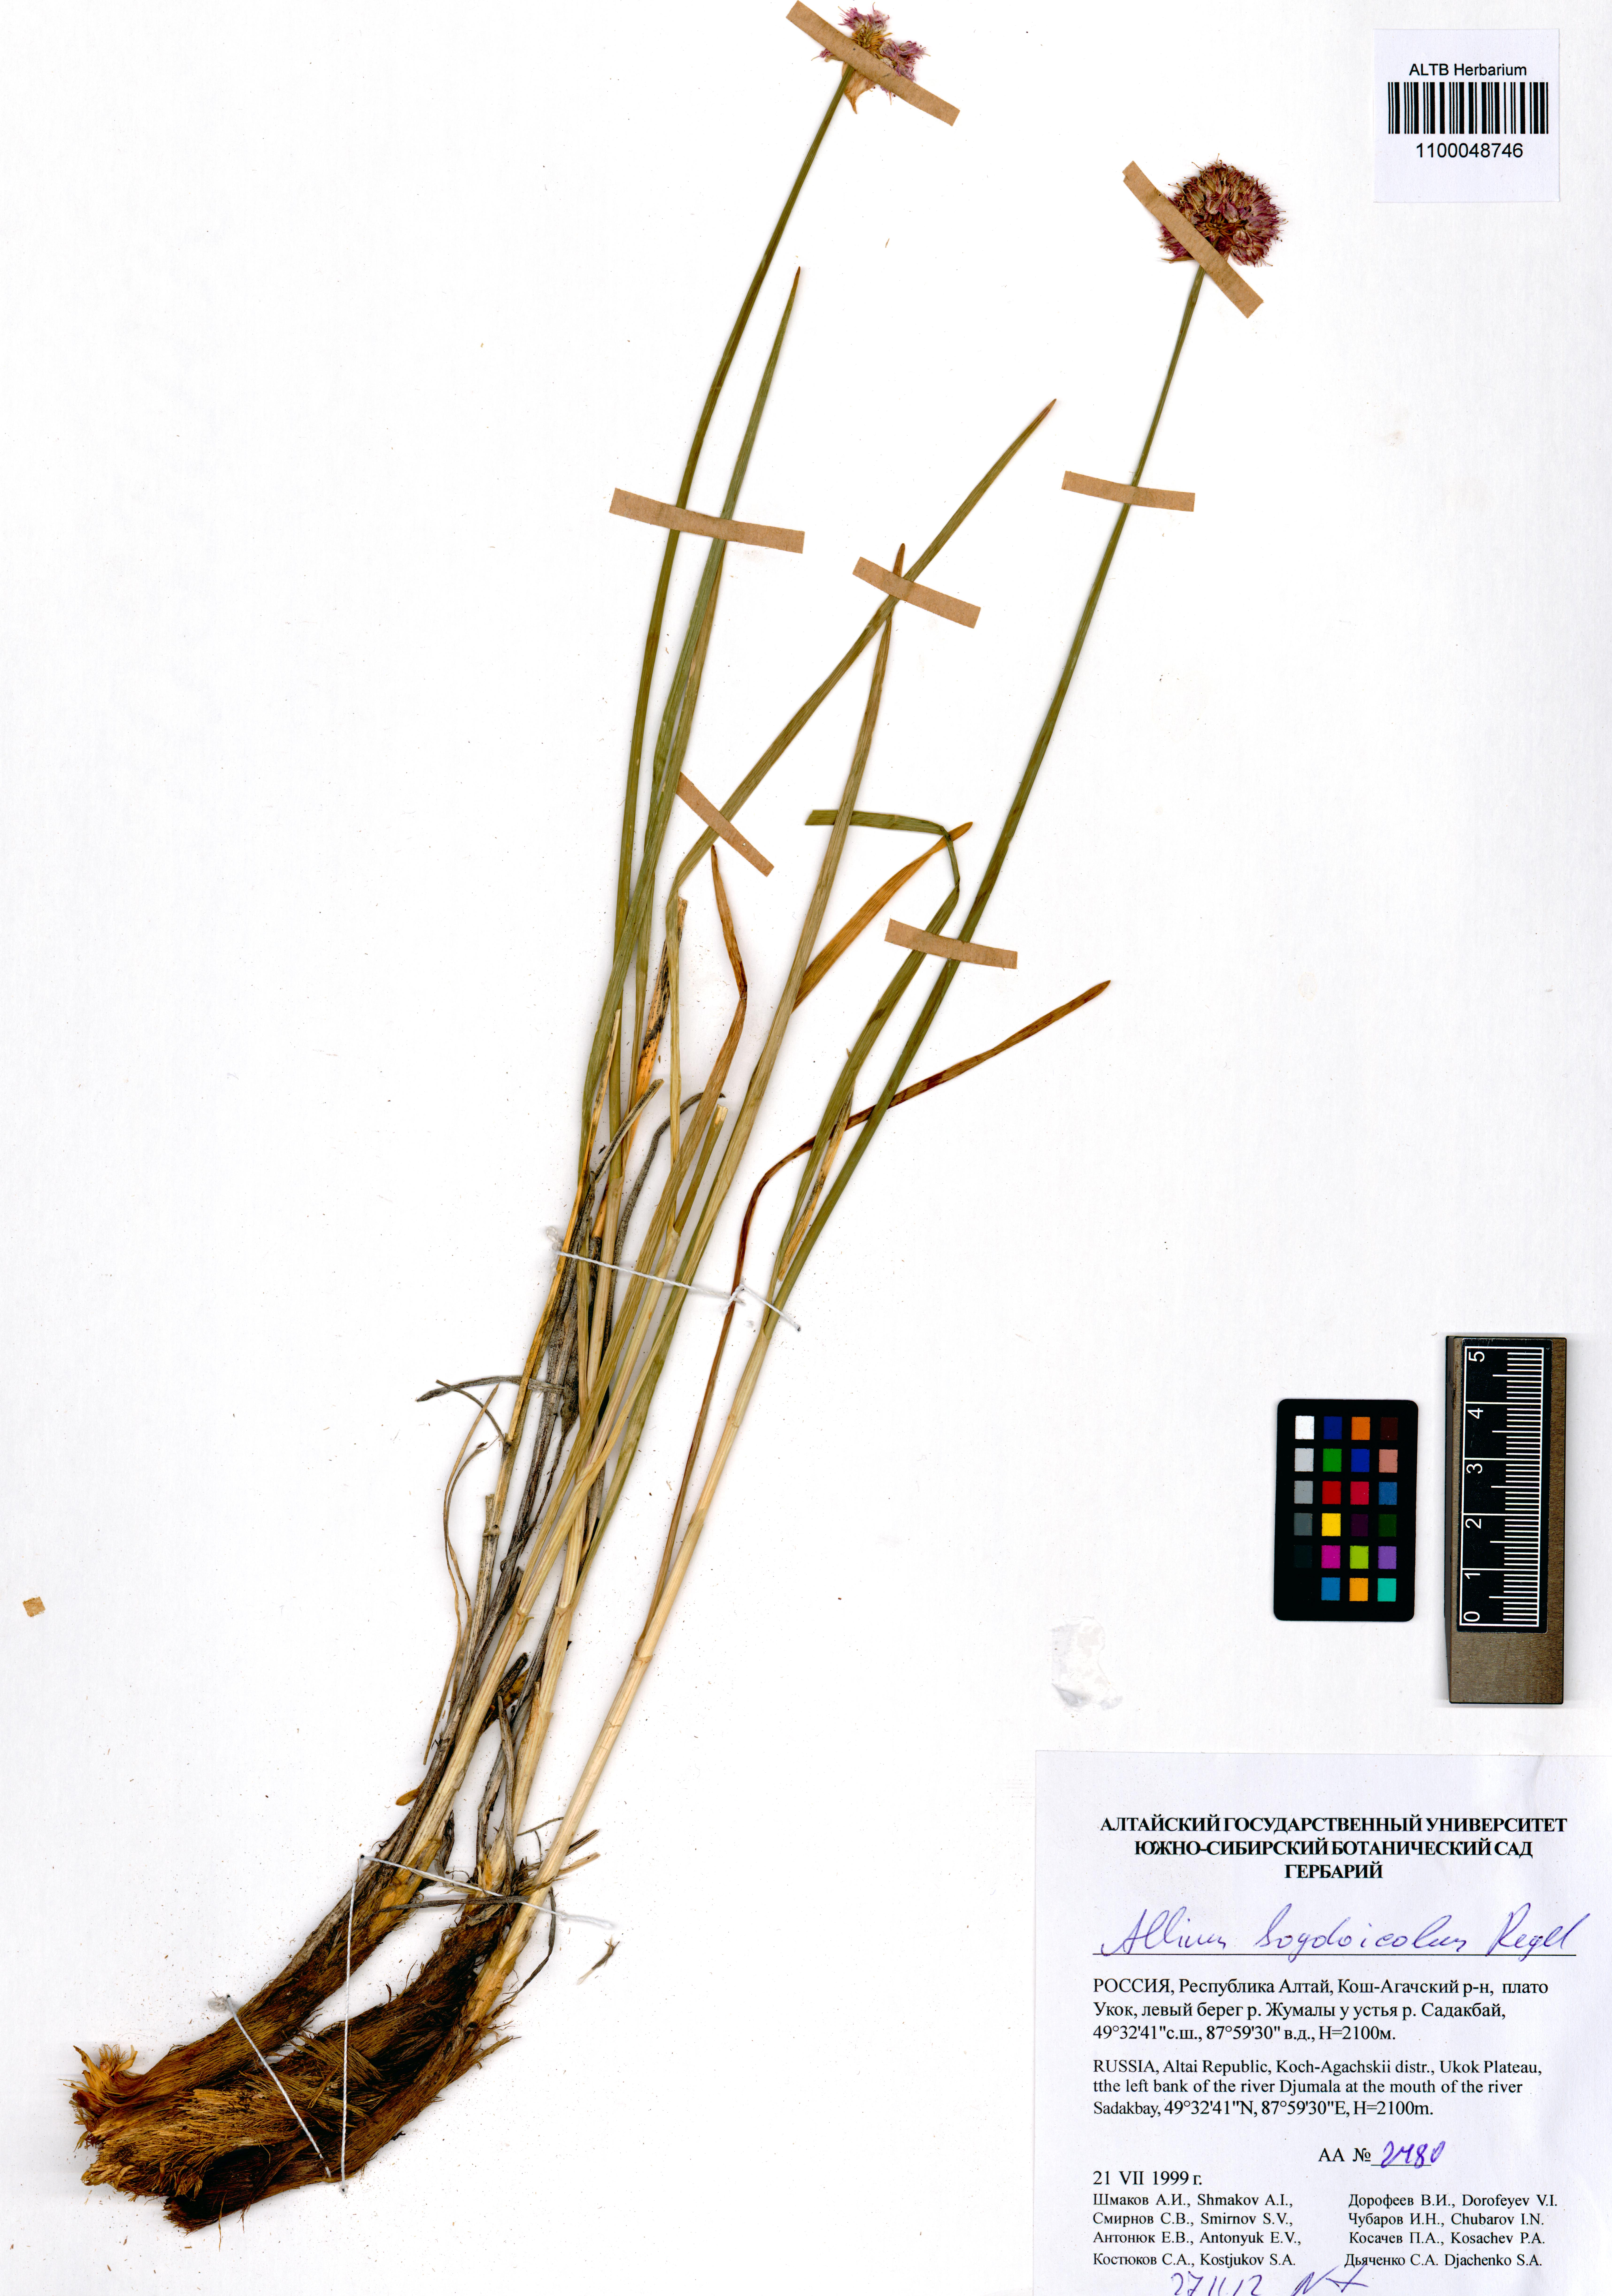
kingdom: Plantae
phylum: Tracheophyta
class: Liliopsida
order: Asparagales
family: Amaryllidaceae
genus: Allium
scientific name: Allium schrenkii
